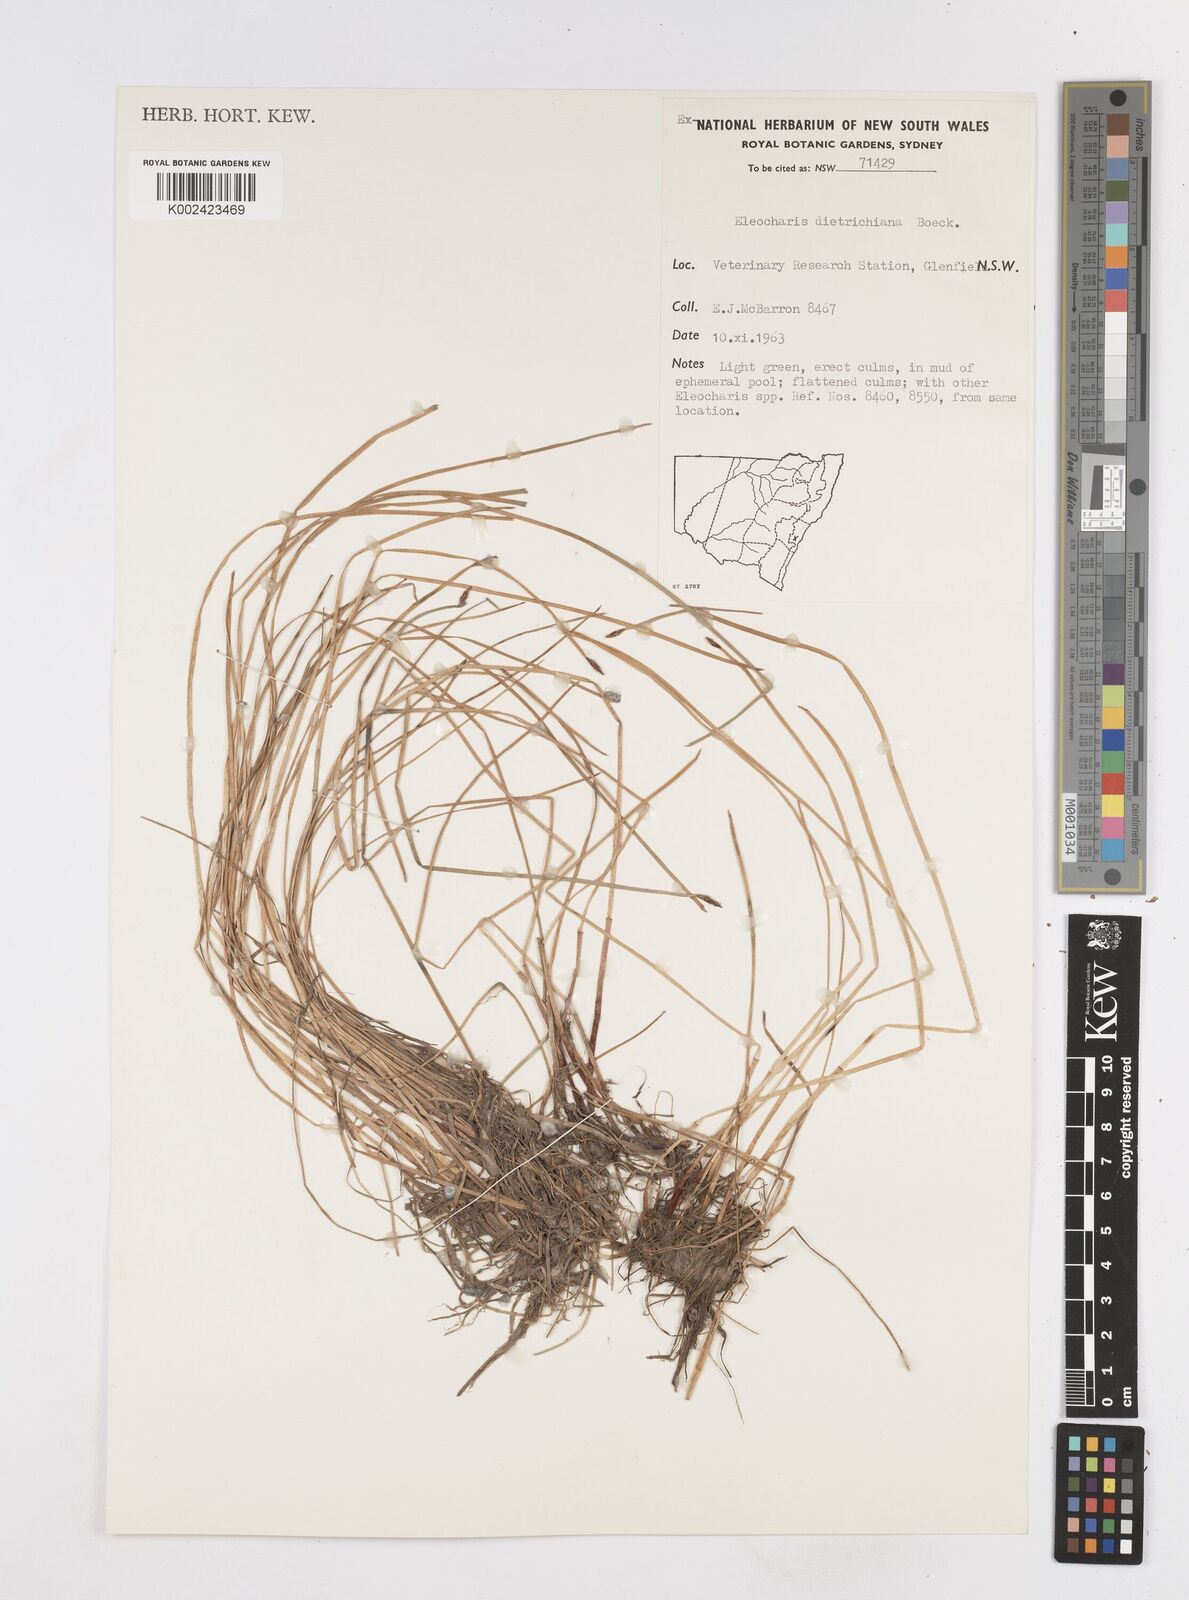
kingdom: Plantae
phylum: Tracheophyta
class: Liliopsida
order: Poales
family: Cyperaceae
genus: Eleocharis
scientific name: Eleocharis dietrichiana
